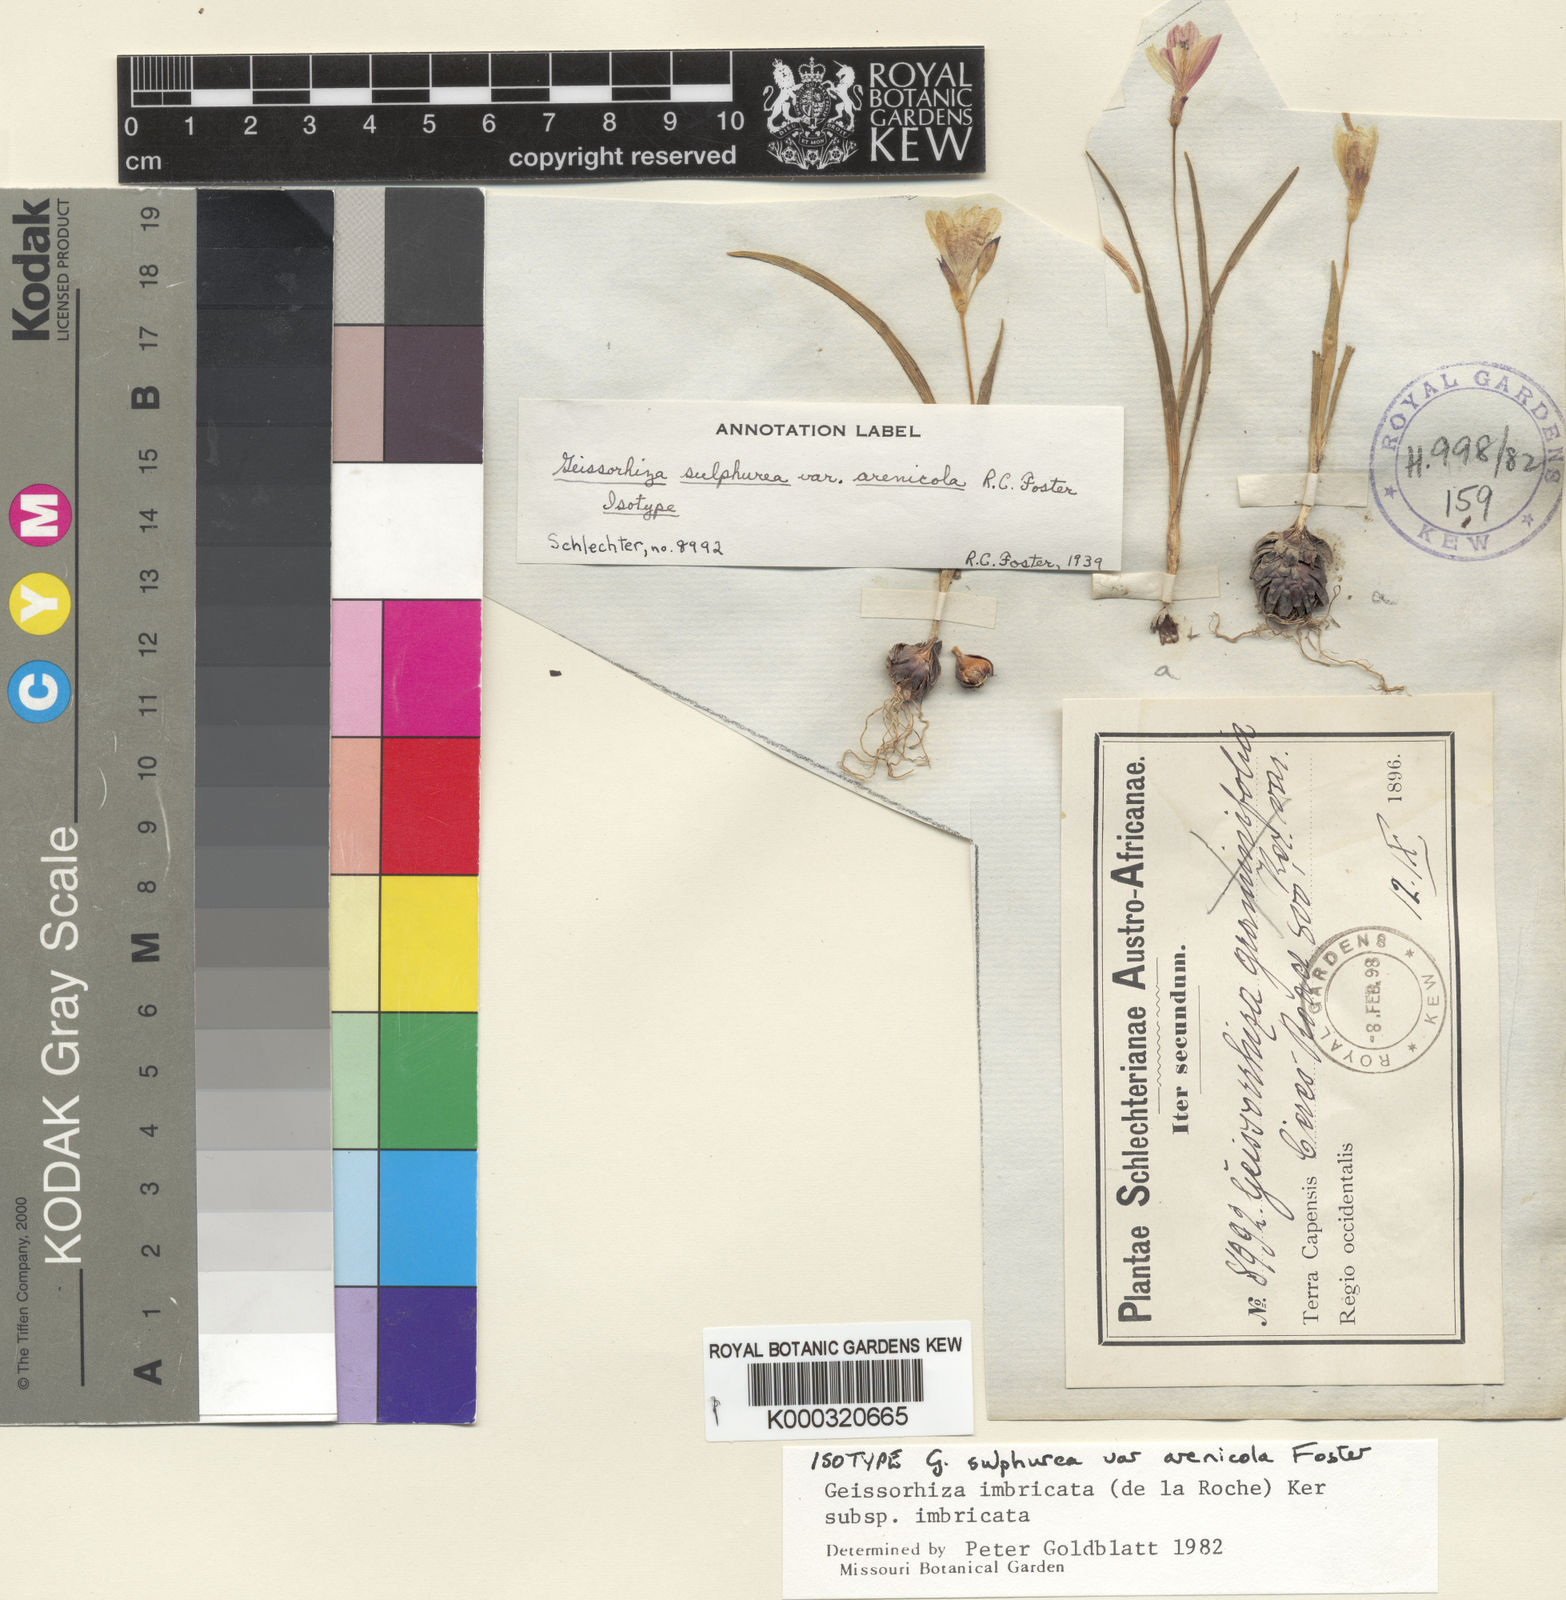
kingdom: Plantae
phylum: Tracheophyta
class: Liliopsida
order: Asparagales
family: Iridaceae
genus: Geissorhiza
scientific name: Geissorhiza imbricata
